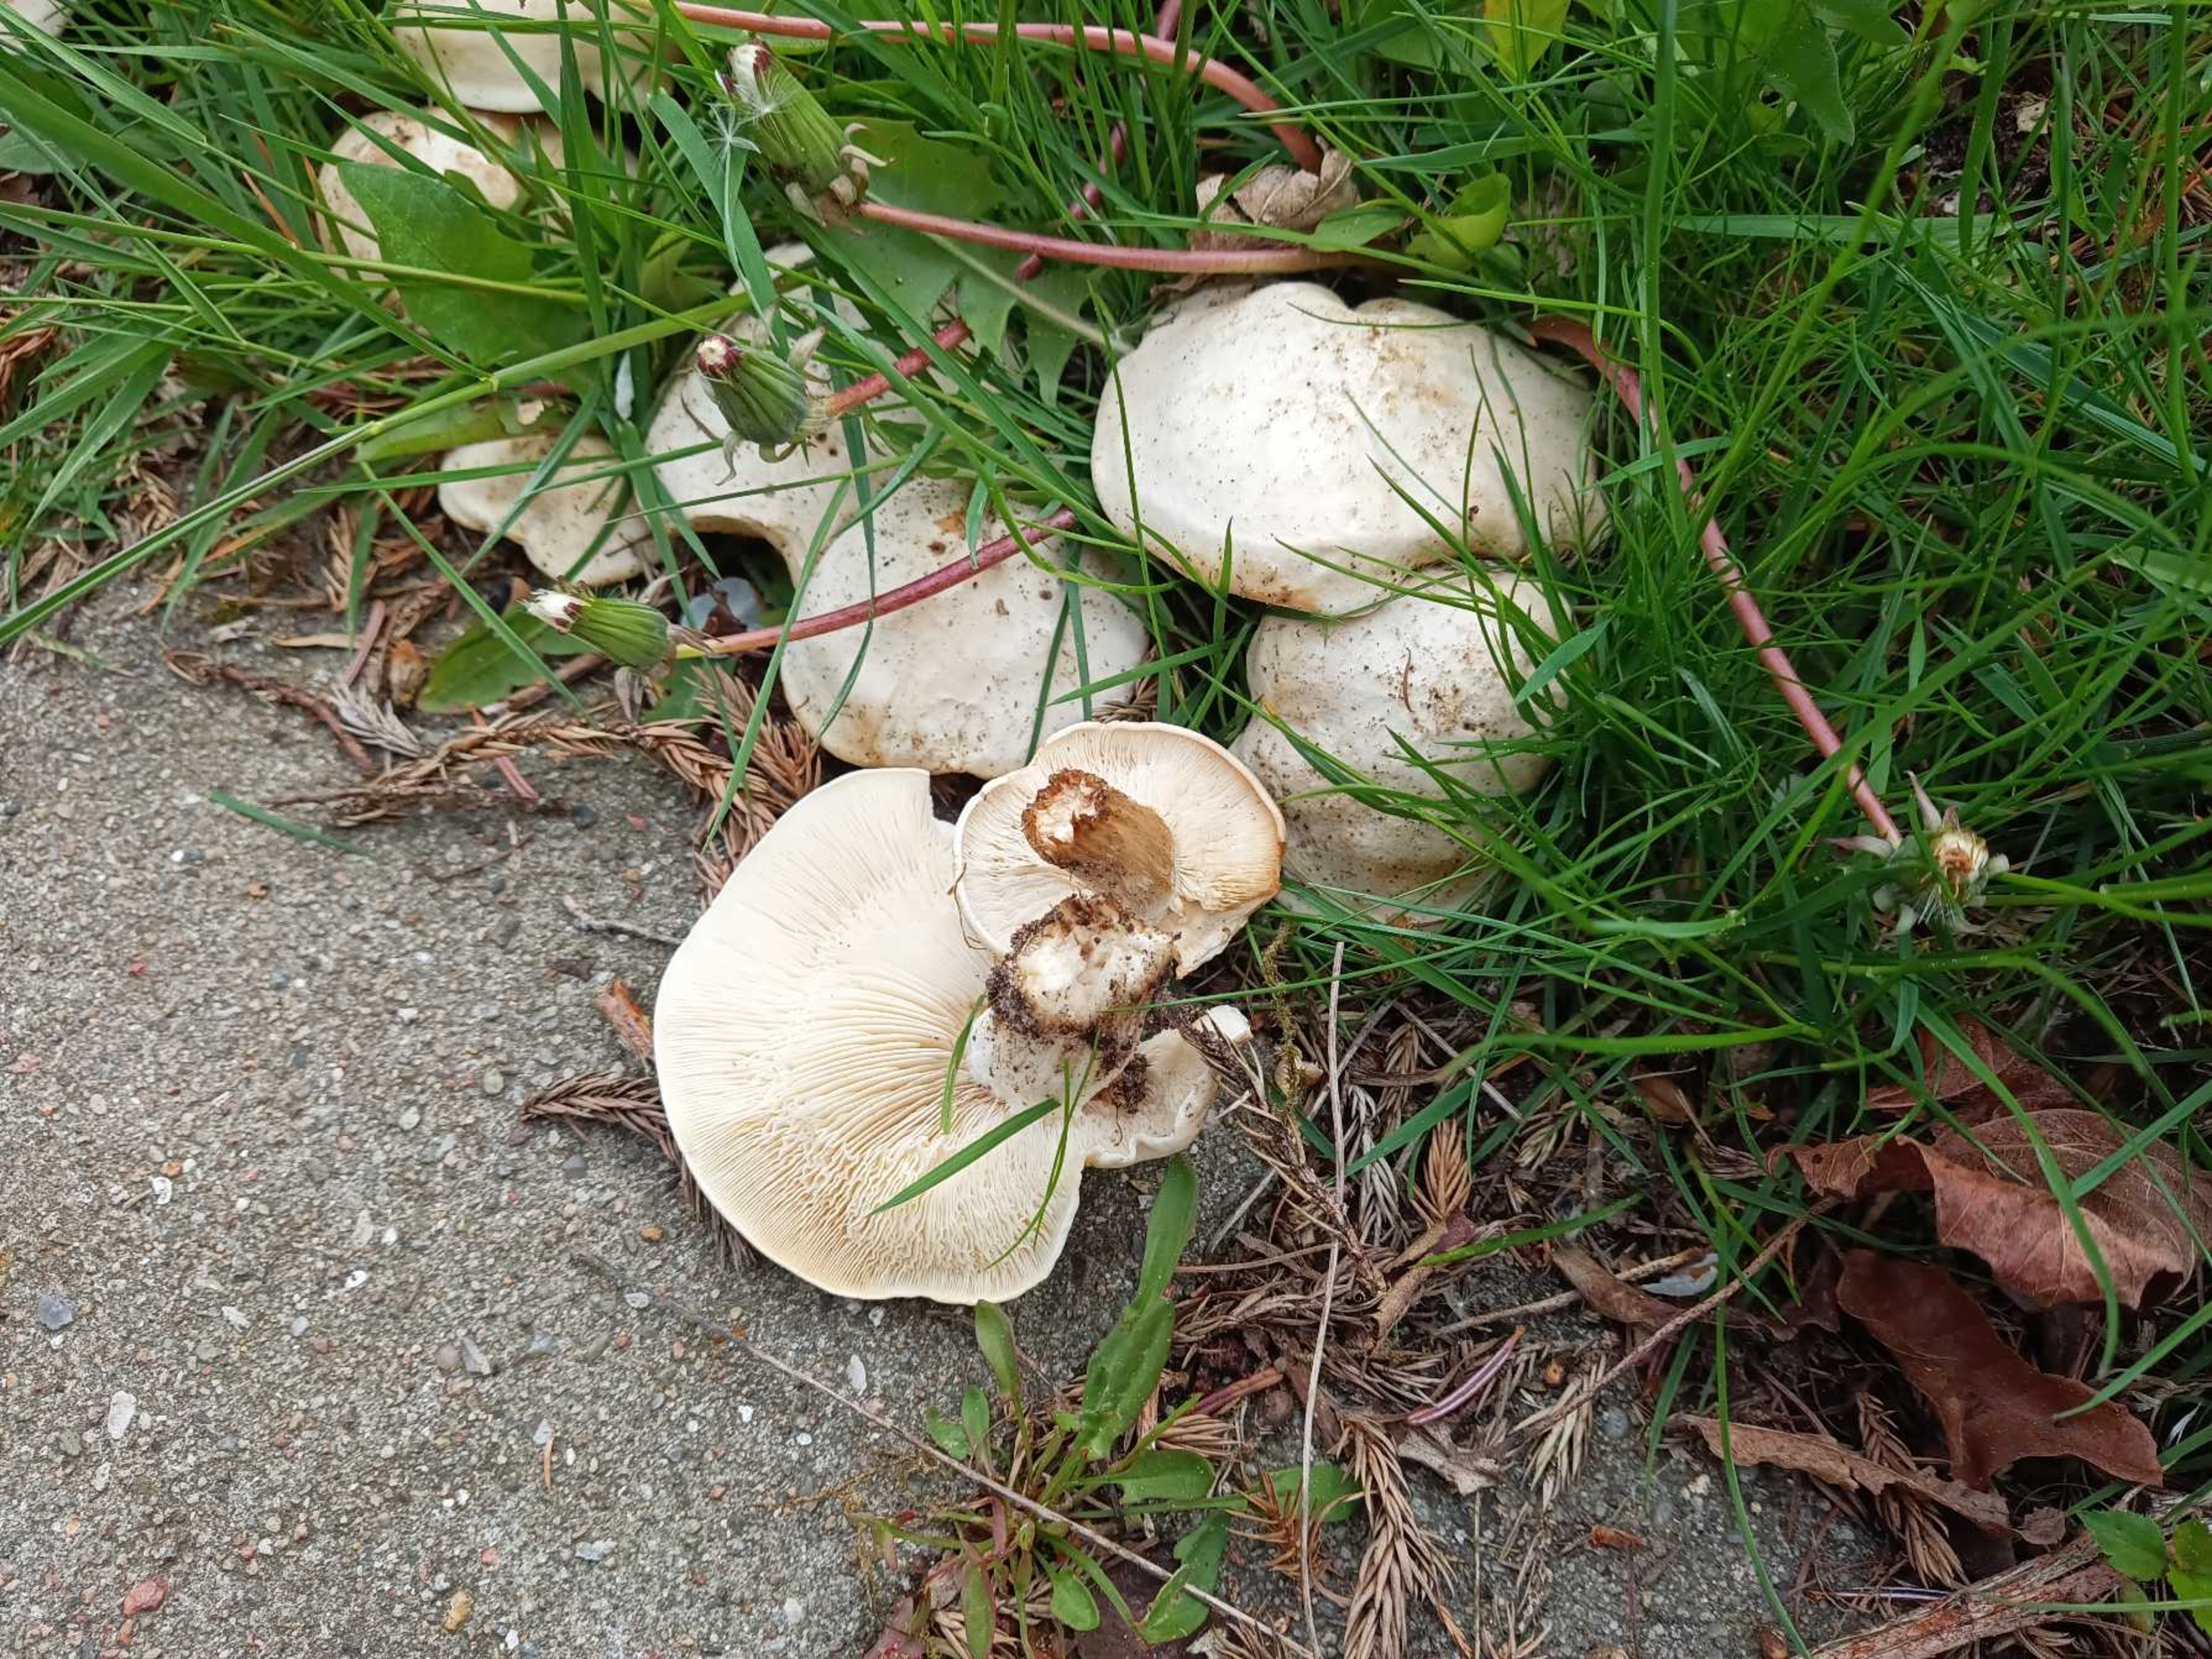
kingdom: Fungi
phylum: Basidiomycota
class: Agaricomycetes
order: Agaricales
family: Lyophyllaceae
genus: Calocybe
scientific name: Calocybe gambosa
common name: Vårmusseron
